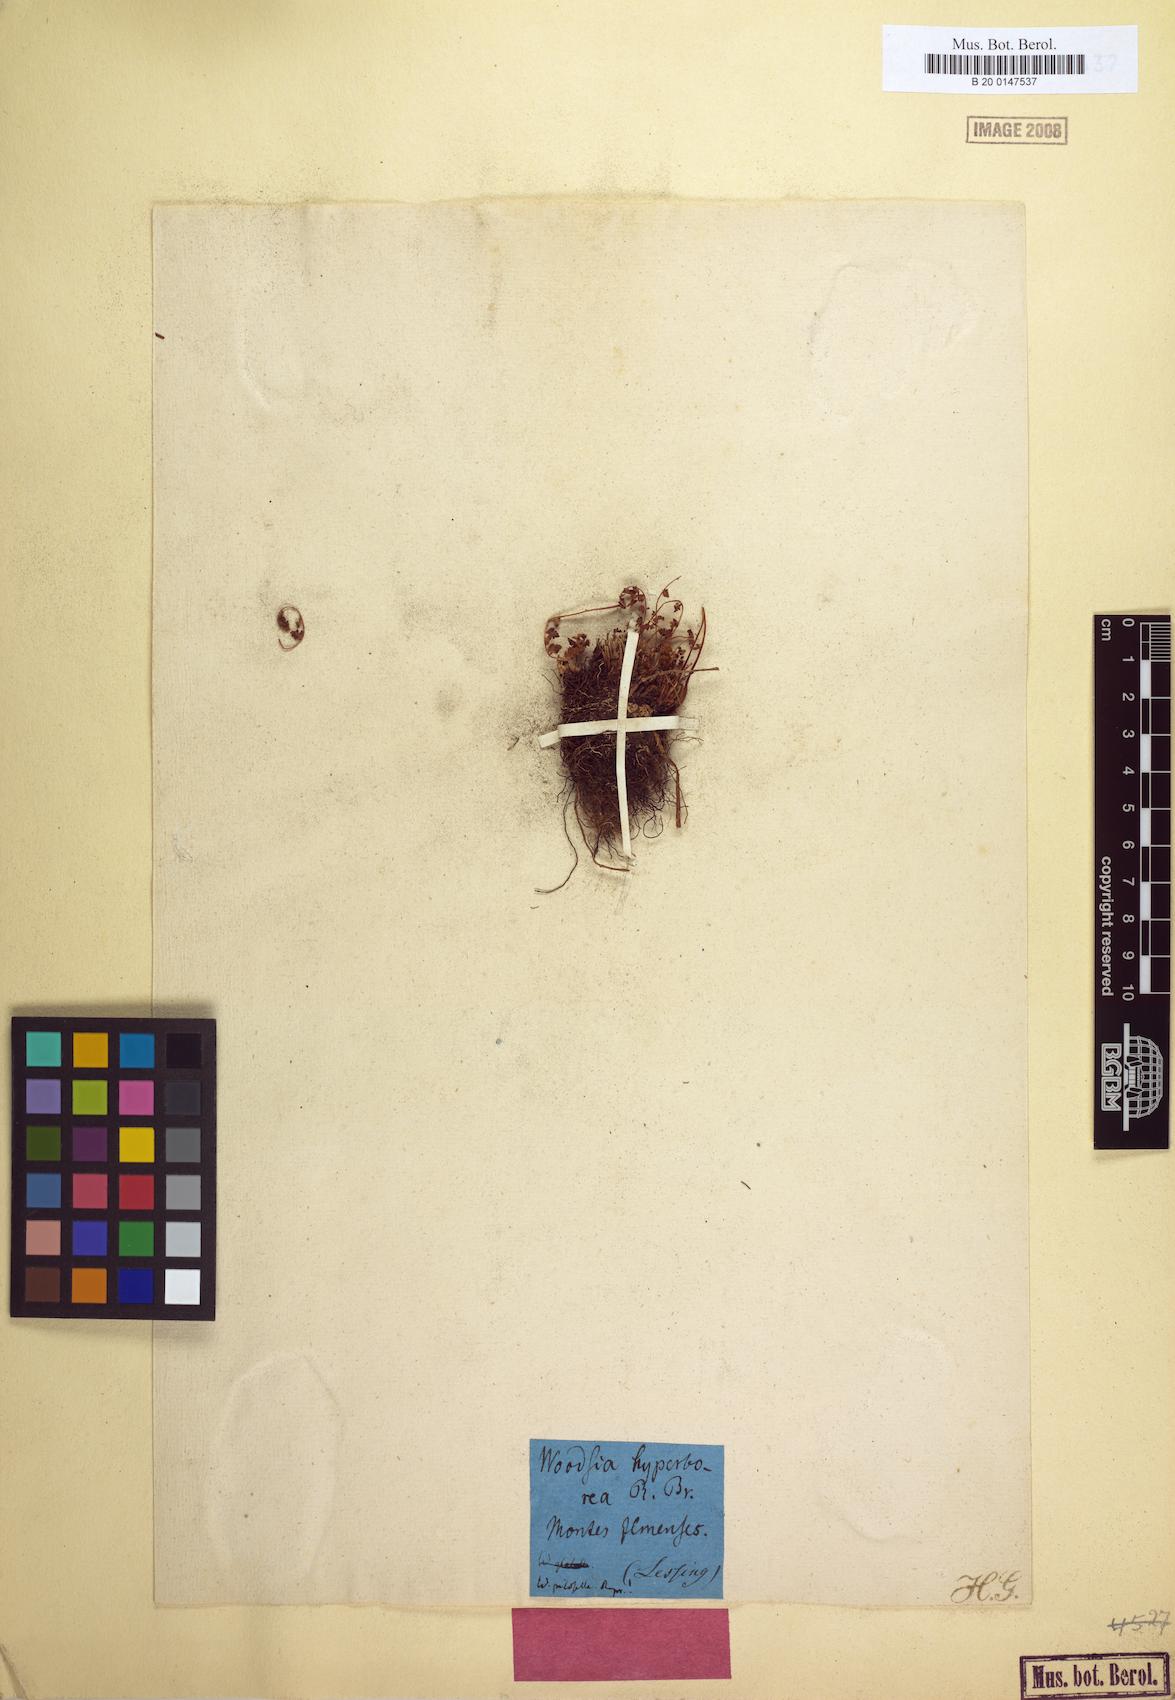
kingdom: Plantae
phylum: Tracheophyta
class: Polypodiopsida
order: Polypodiales
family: Woodsiaceae
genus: Woodsia
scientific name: Woodsia alpina
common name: Alpine woodsia
